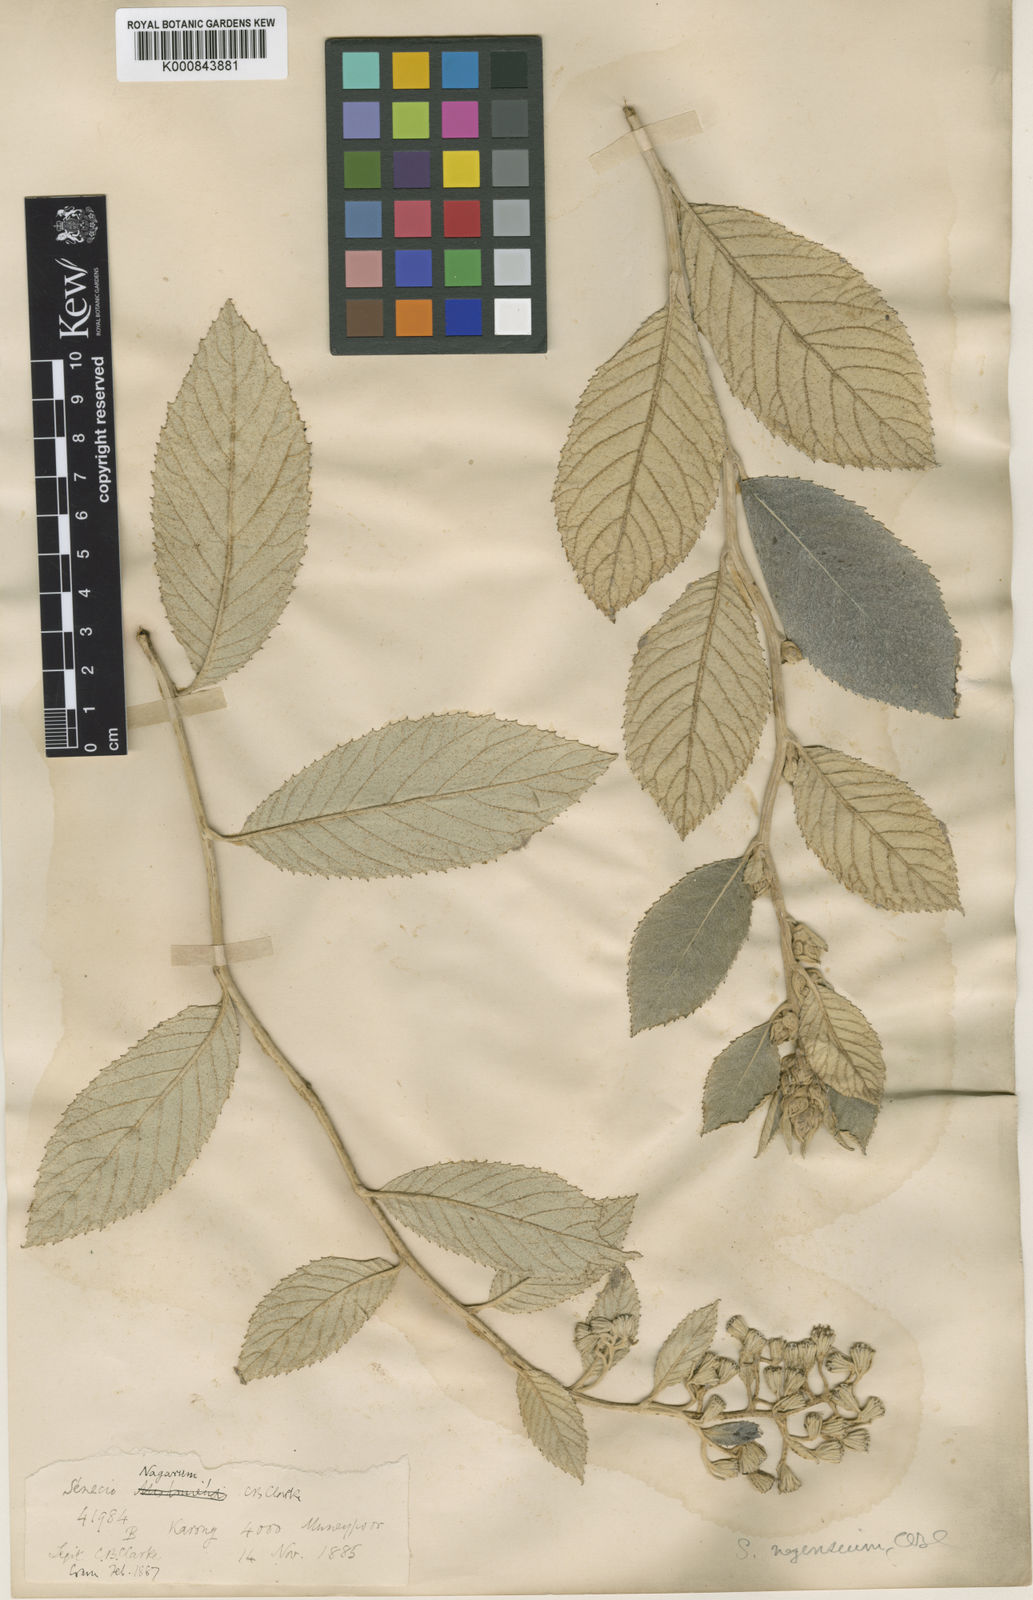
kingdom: Plantae
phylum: Tracheophyta
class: Magnoliopsida
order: Asterales
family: Asteraceae
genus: Synotis
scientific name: Synotis nagensium
